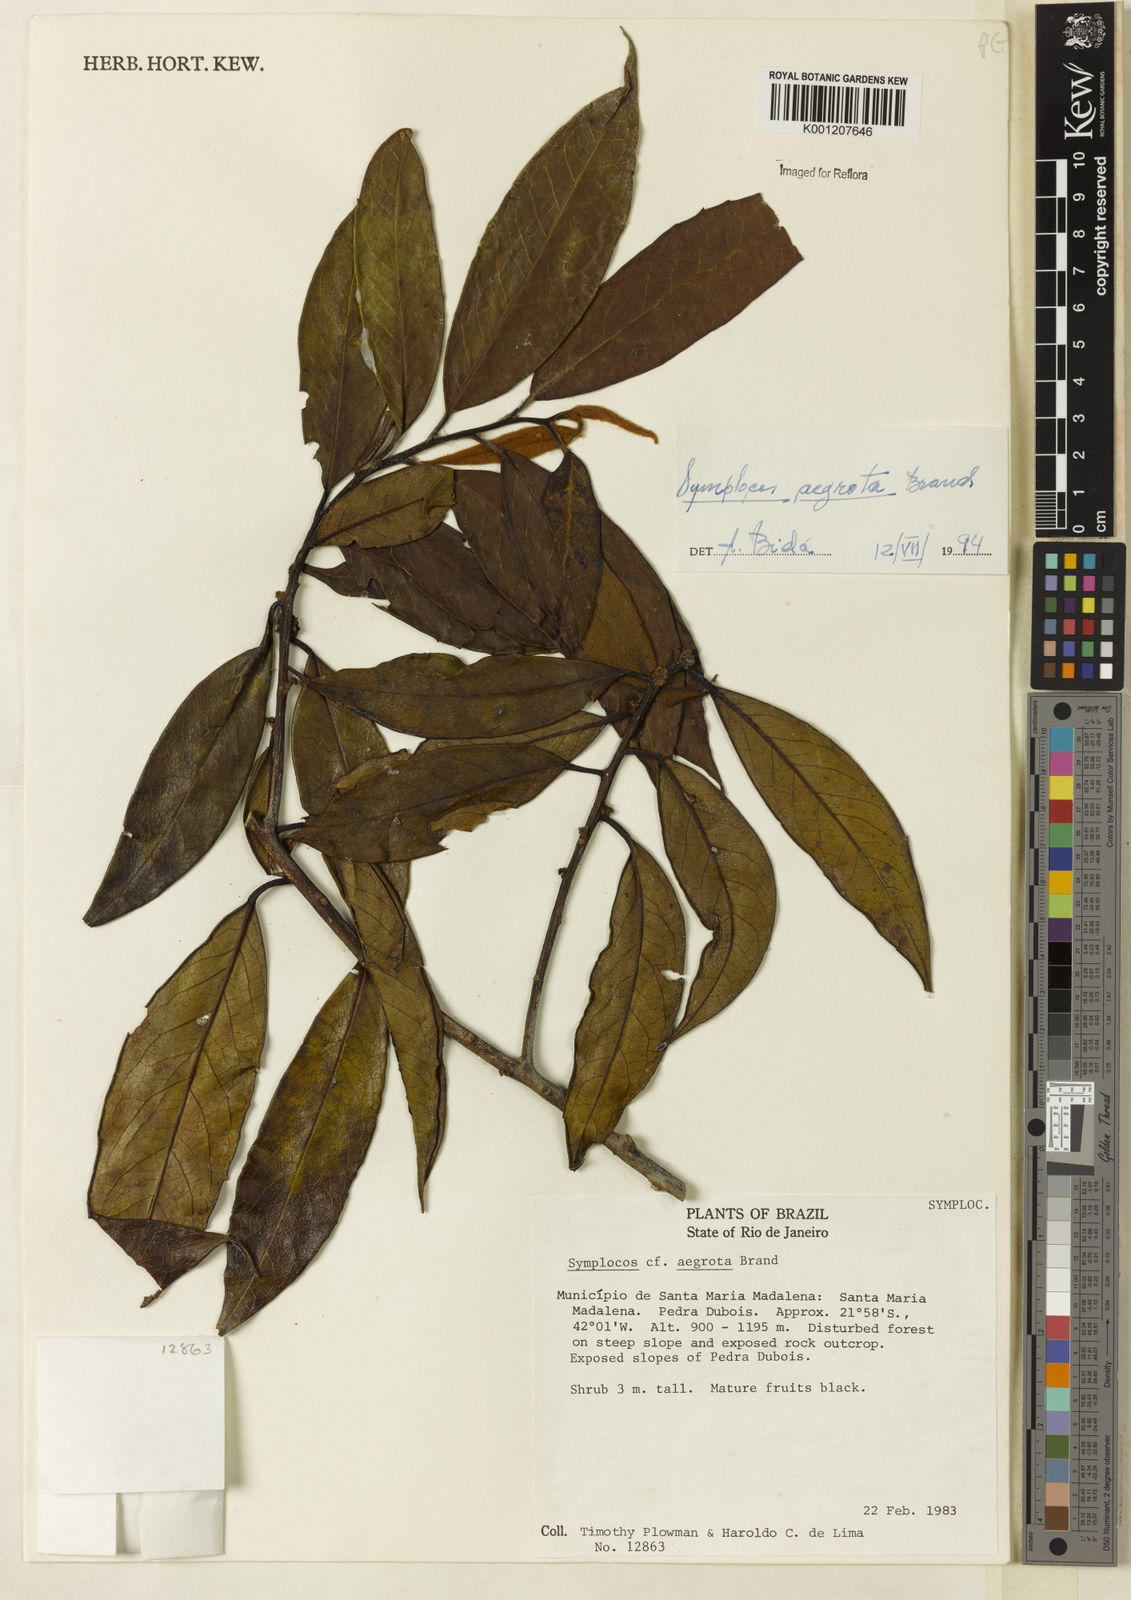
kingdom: Plantae
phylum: Tracheophyta
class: Magnoliopsida
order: Ericales
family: Symplocaceae
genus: Symplocos
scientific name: Symplocos falcata
